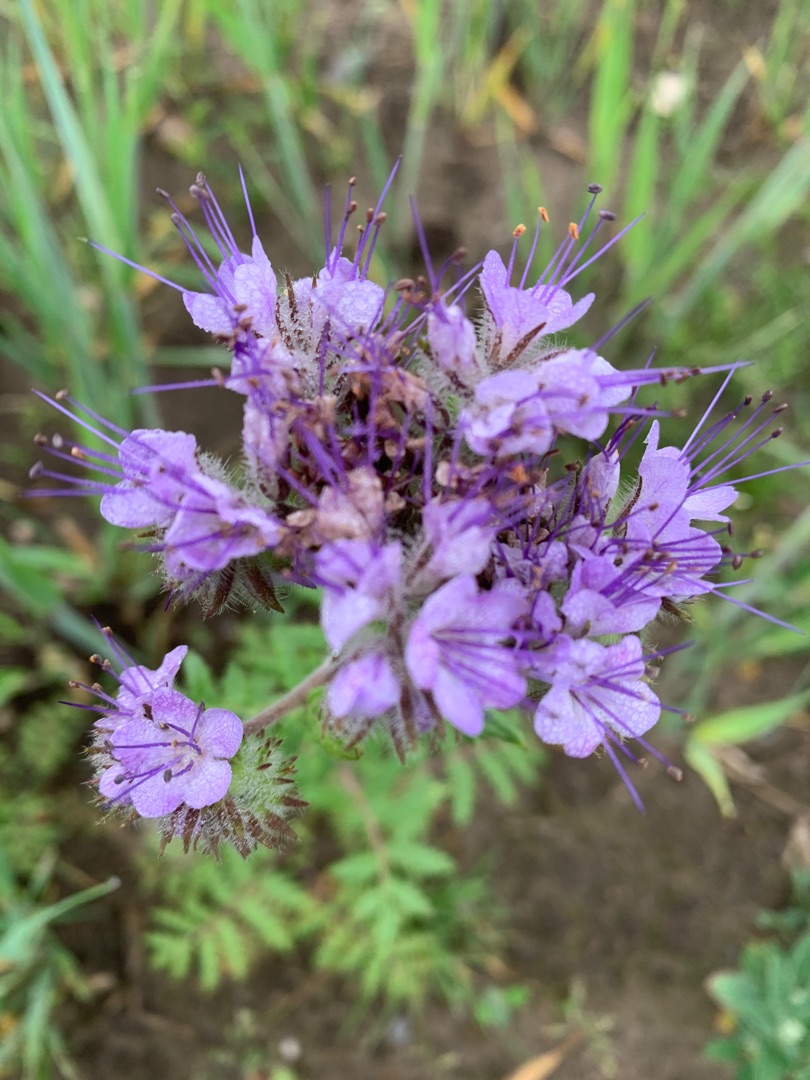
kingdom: Plantae
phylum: Tracheophyta
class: Magnoliopsida
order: Boraginales
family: Hydrophyllaceae
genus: Phacelia
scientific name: Phacelia tanacetifolia
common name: Honningurt
